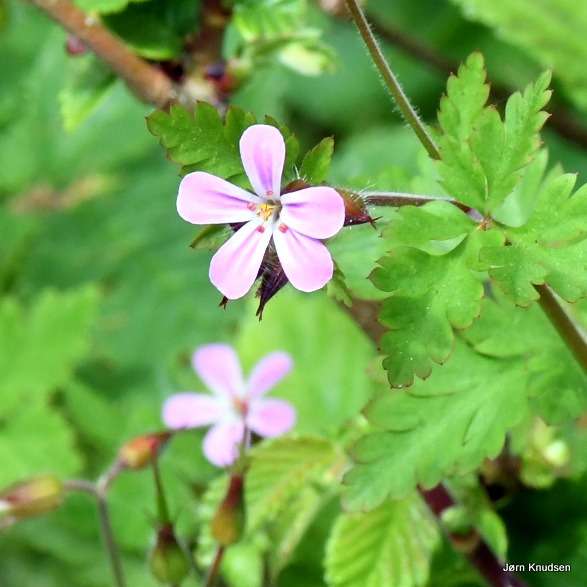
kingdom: Plantae
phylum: Tracheophyta
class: Magnoliopsida
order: Geraniales
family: Geraniaceae
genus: Geranium
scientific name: Geranium robertianum
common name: Stinkende storkenæb
